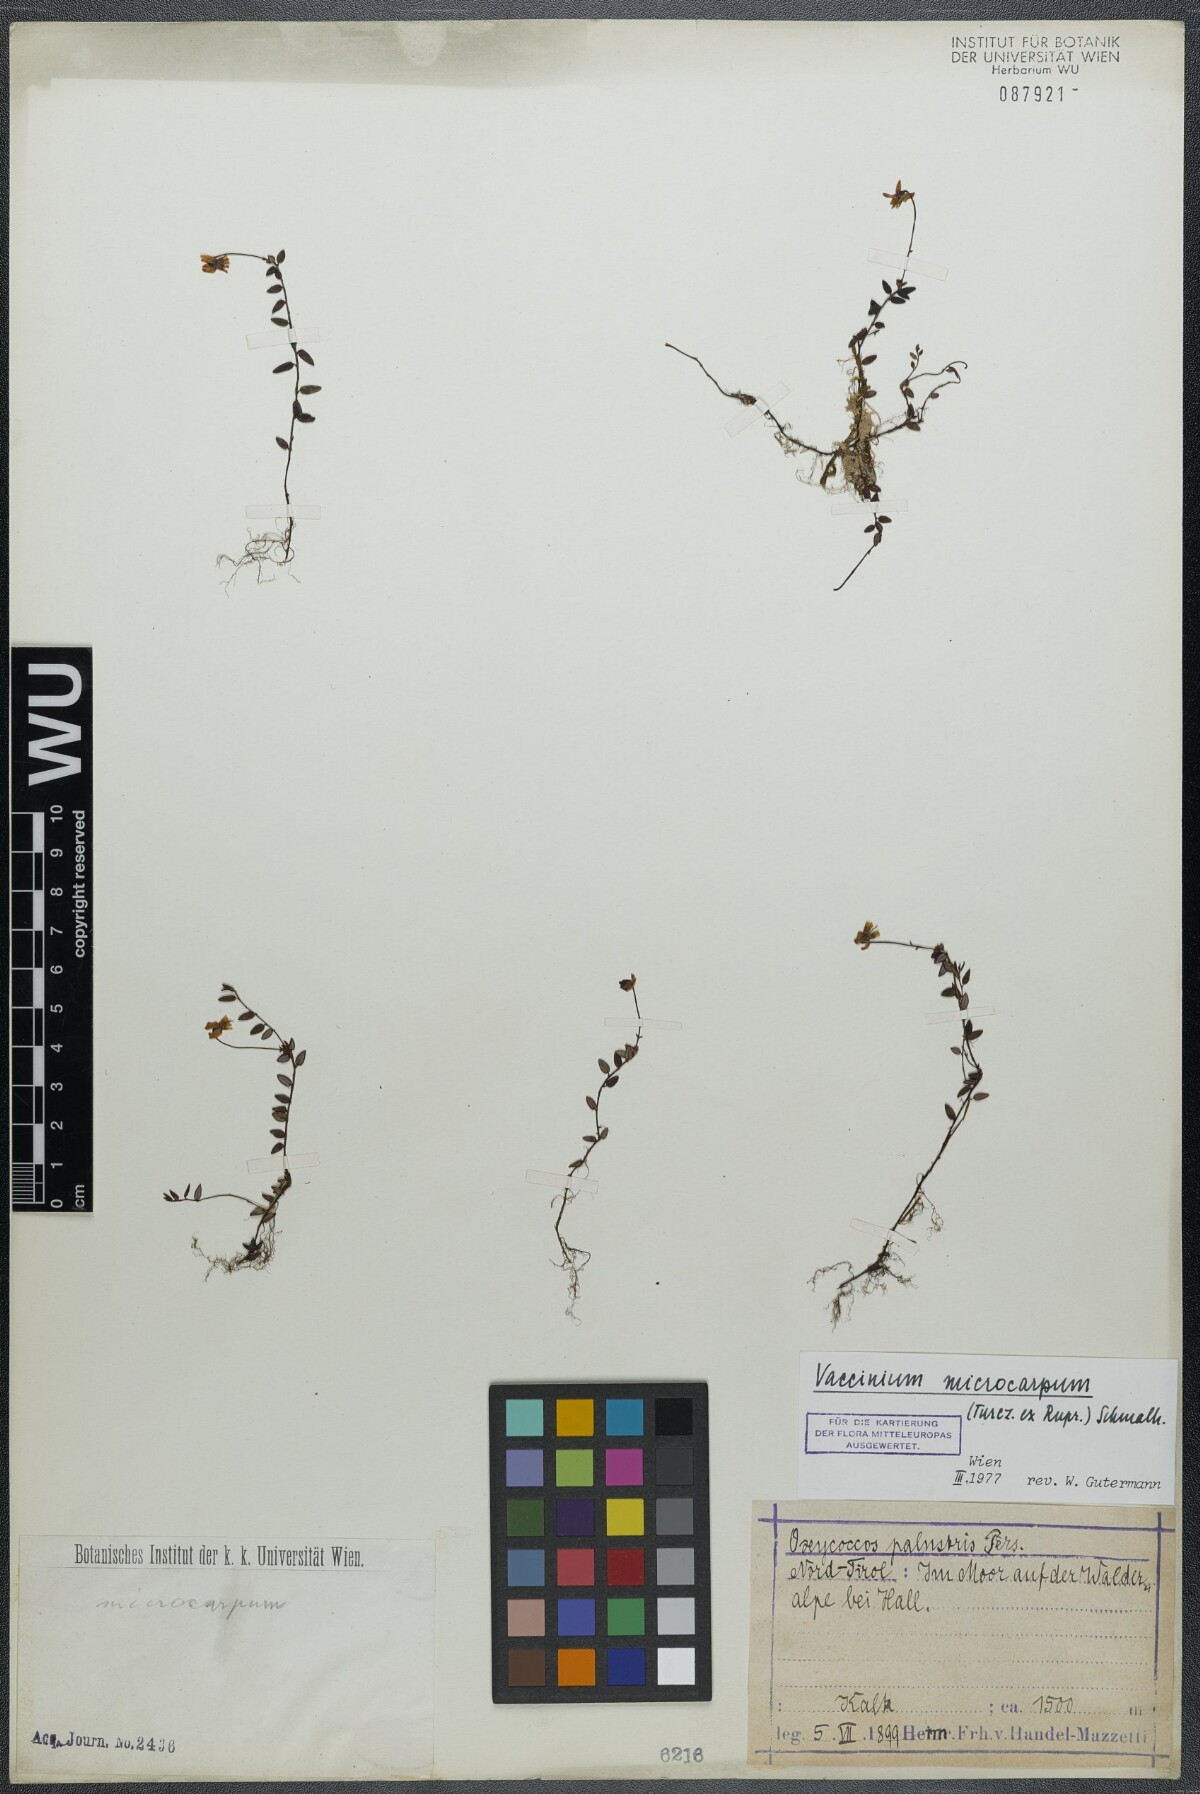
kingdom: Plantae
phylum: Tracheophyta
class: Magnoliopsida
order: Ericales
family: Ericaceae
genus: Vaccinium
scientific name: Vaccinium microcarpum
